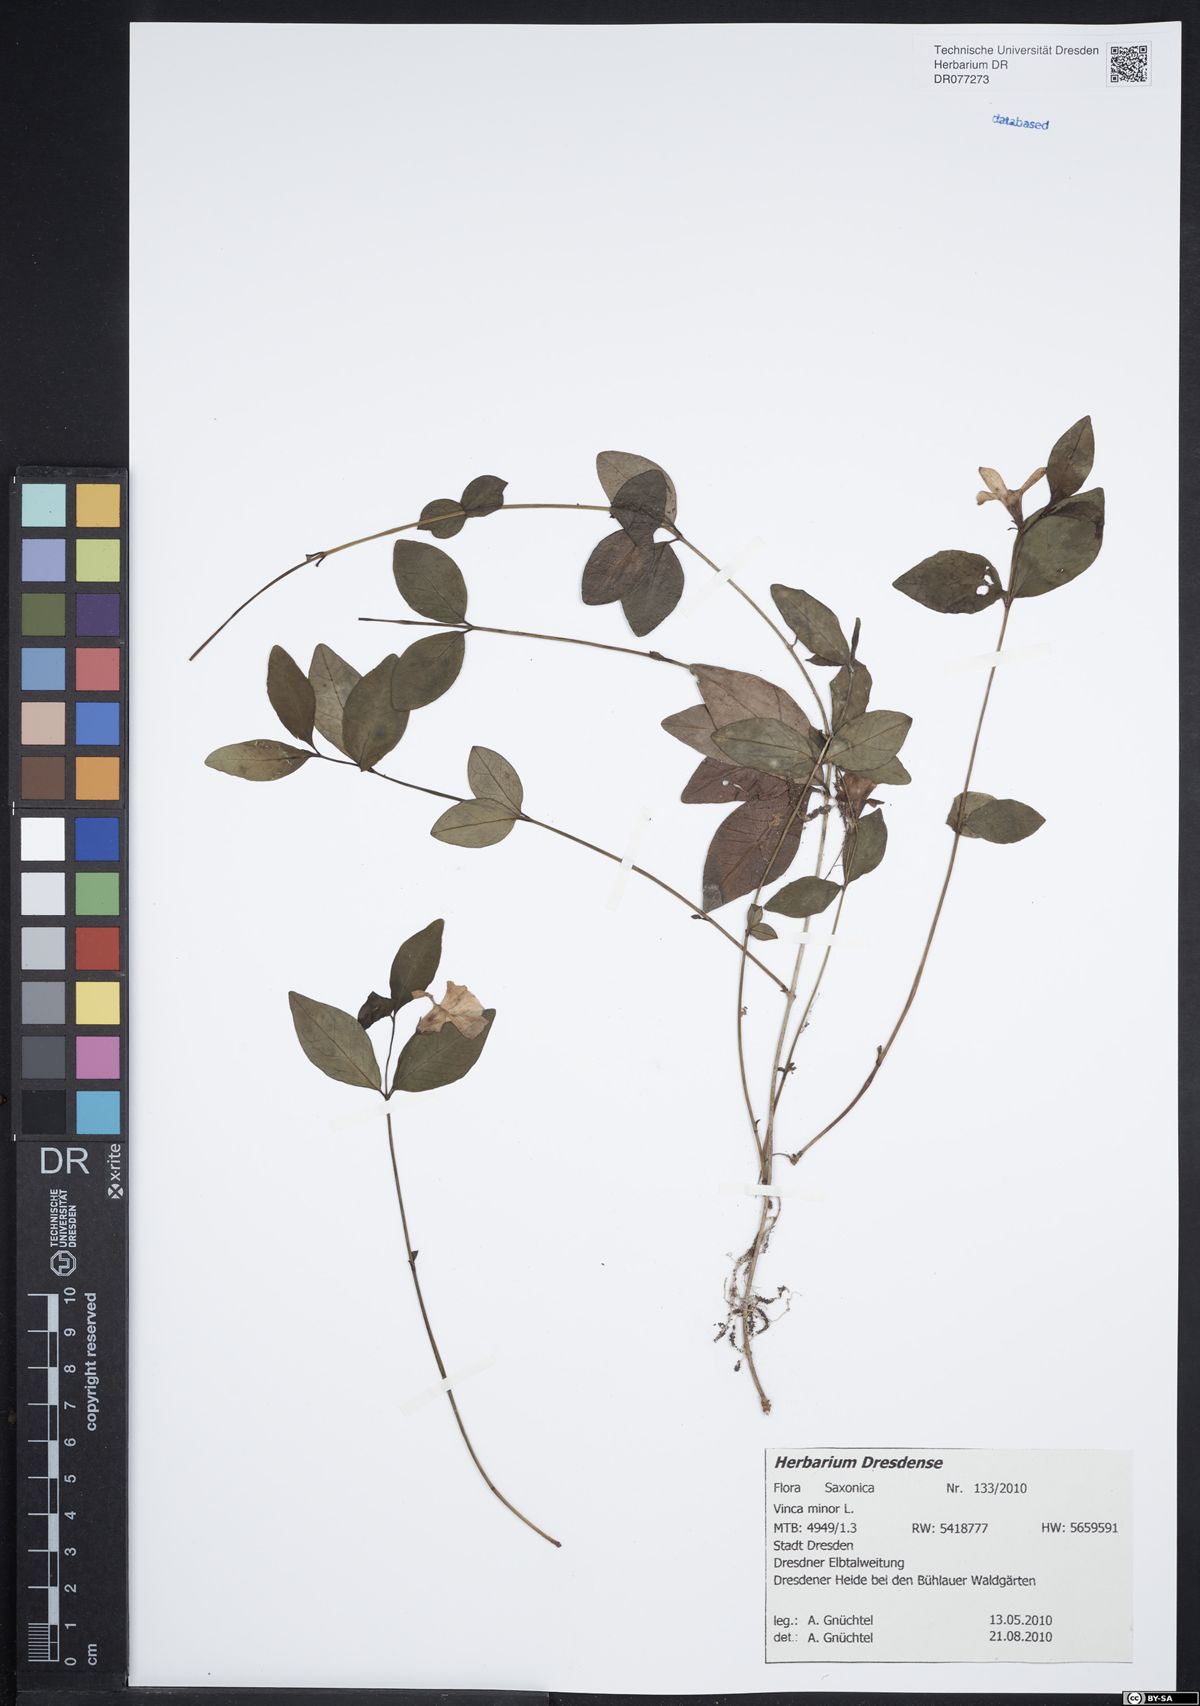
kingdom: Plantae
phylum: Tracheophyta
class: Magnoliopsida
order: Gentianales
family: Apocynaceae
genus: Vinca
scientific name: Vinca minor
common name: Lesser periwinkle
